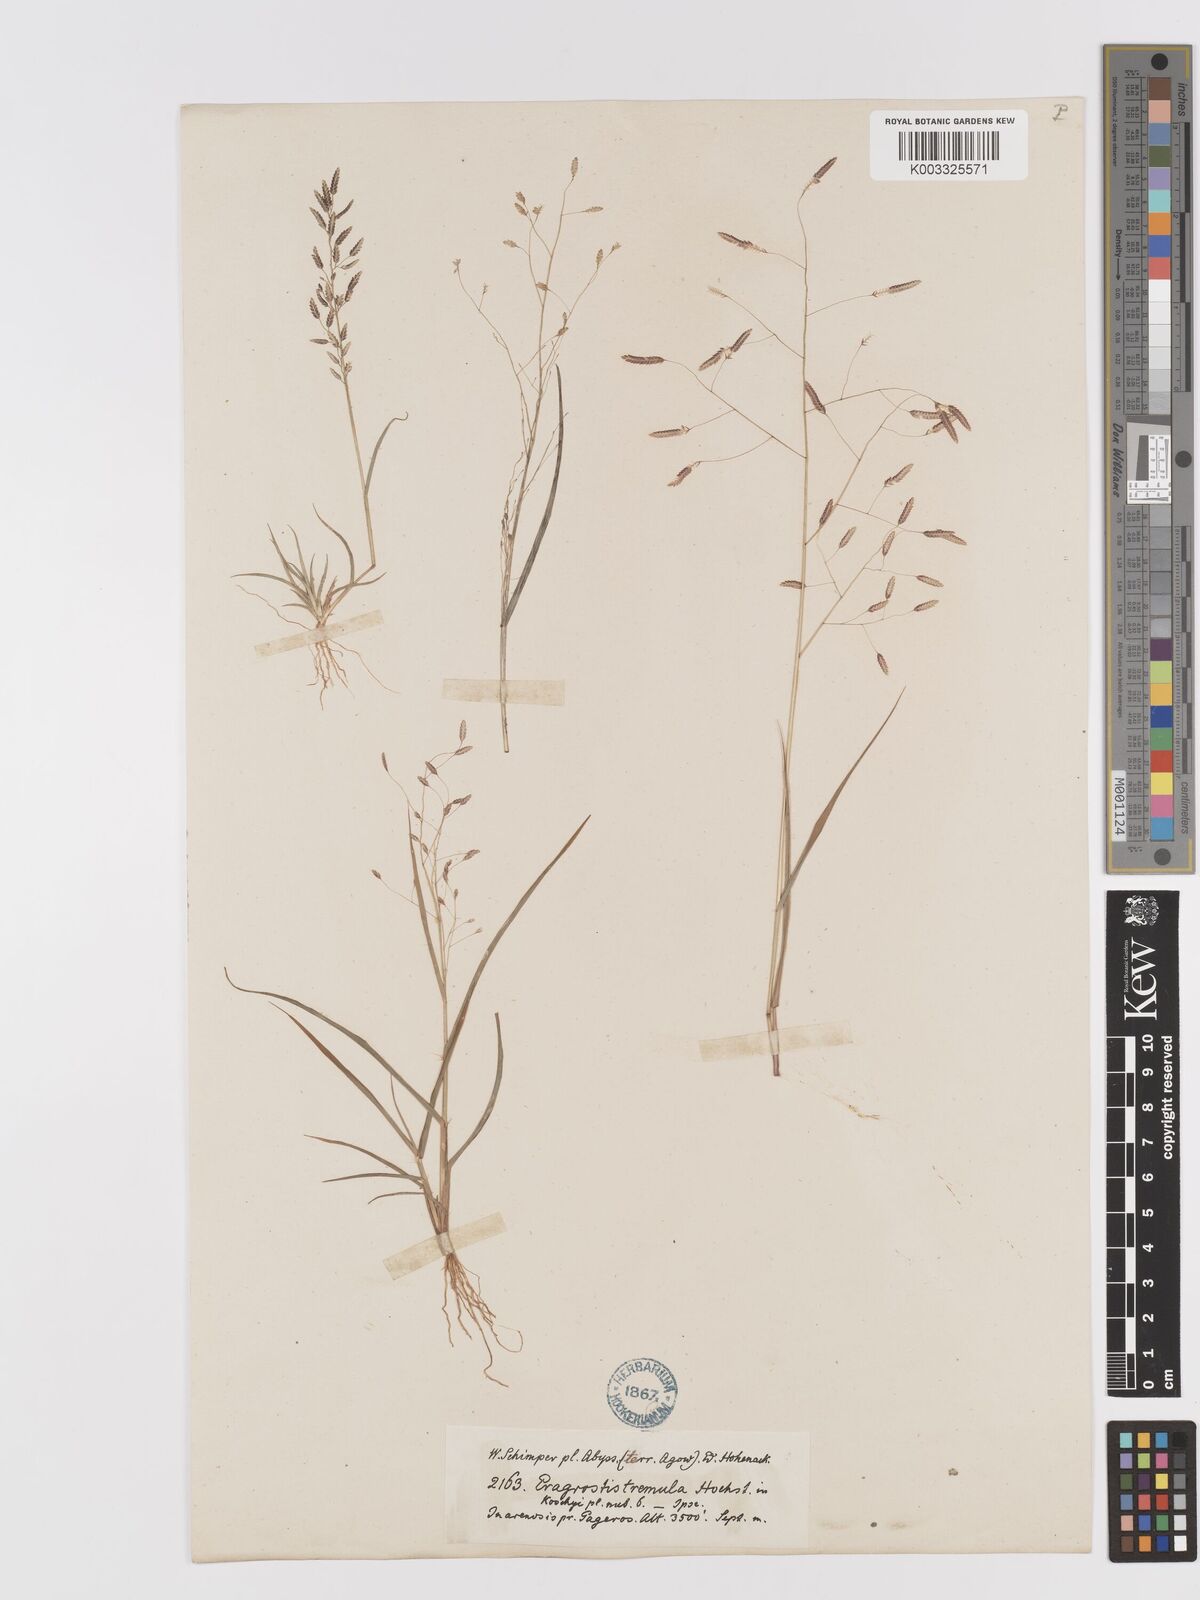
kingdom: Plantae
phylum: Tracheophyta
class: Liliopsida
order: Poales
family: Poaceae
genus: Eragrostis
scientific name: Eragrostis tremula
